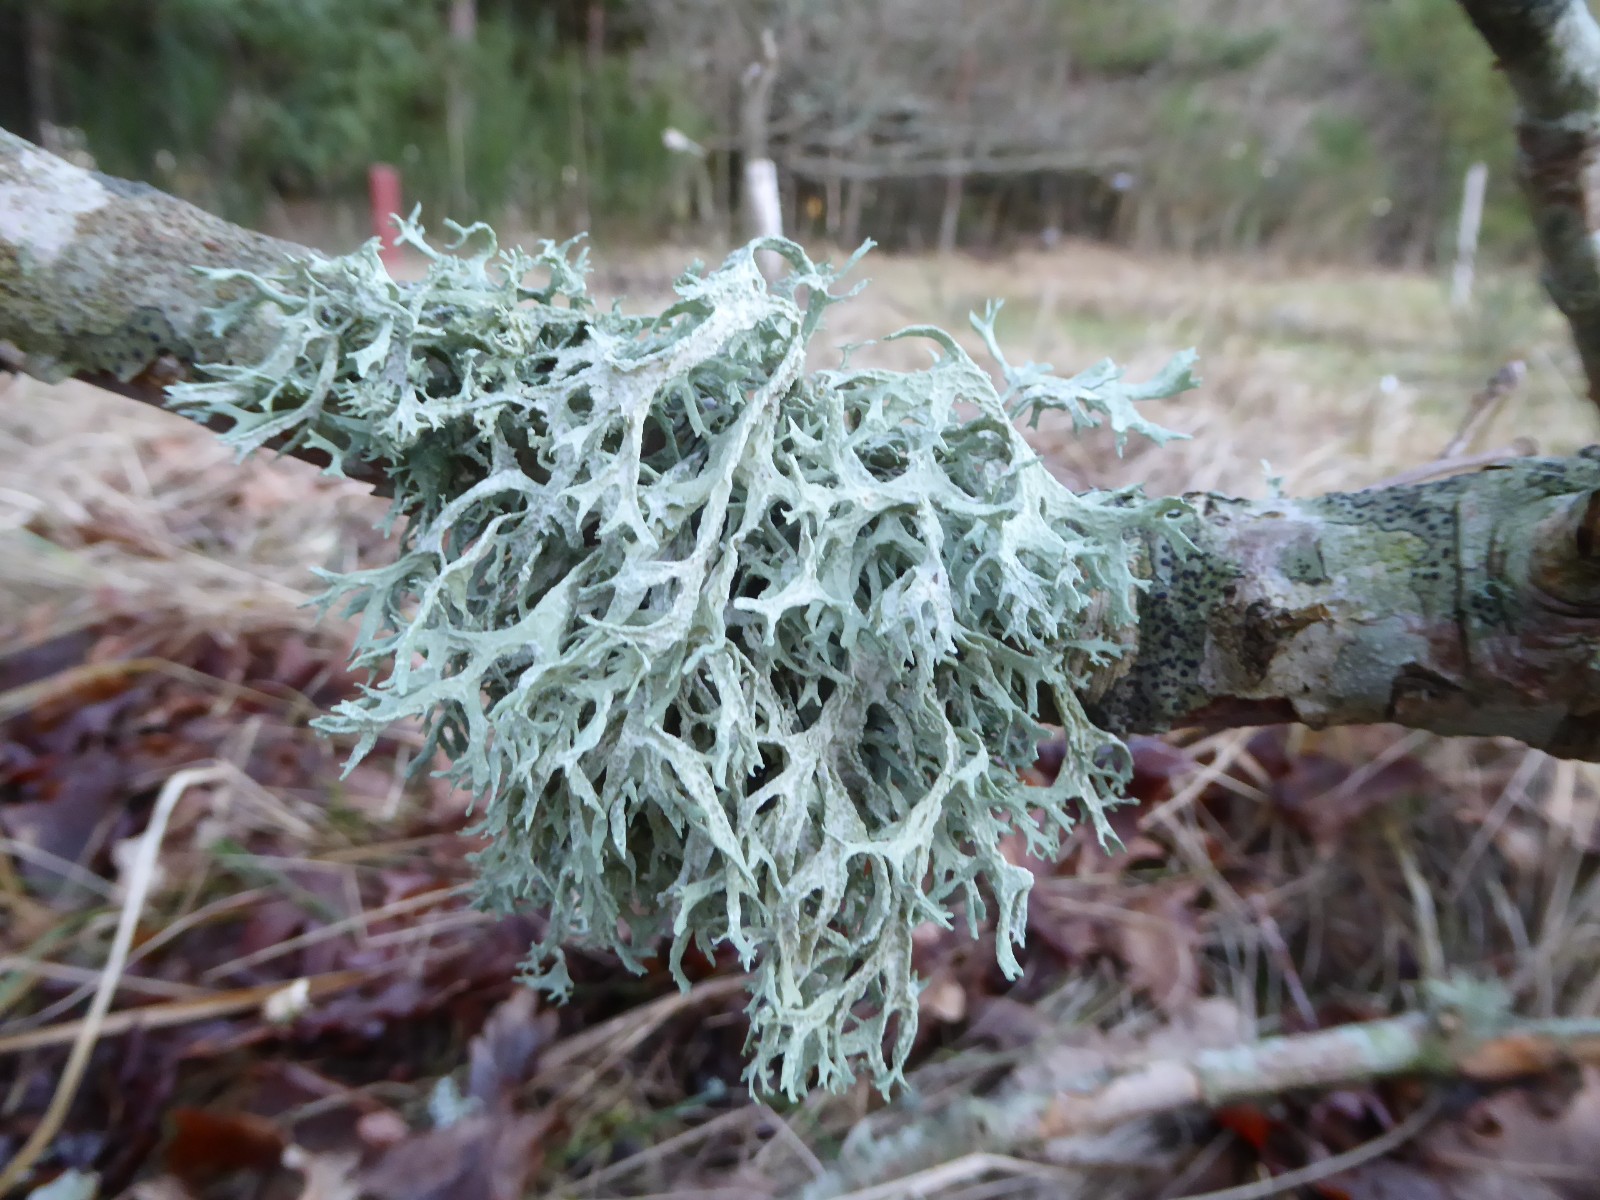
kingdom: Fungi
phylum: Ascomycota
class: Lecanoromycetes
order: Lecanorales
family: Parmeliaceae
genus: Evernia
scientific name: Evernia prunastri
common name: almindelig slåenlav
